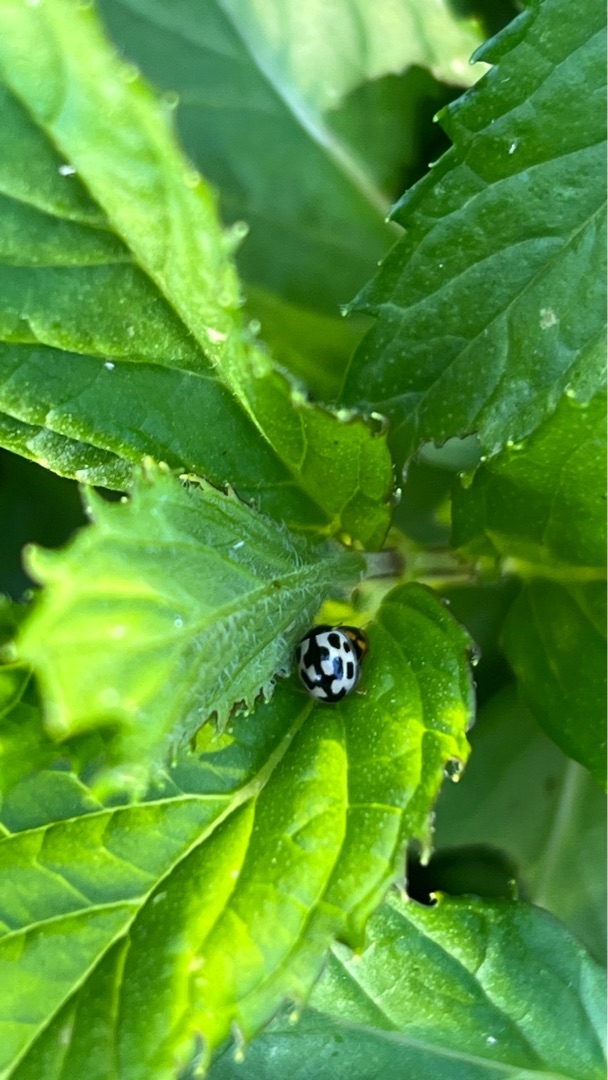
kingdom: Animalia
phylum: Arthropoda
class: Insecta
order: Coleoptera
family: Coccinellidae
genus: Propylaea
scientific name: Propylaea quatuordecimpunctata
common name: Skakbræt
